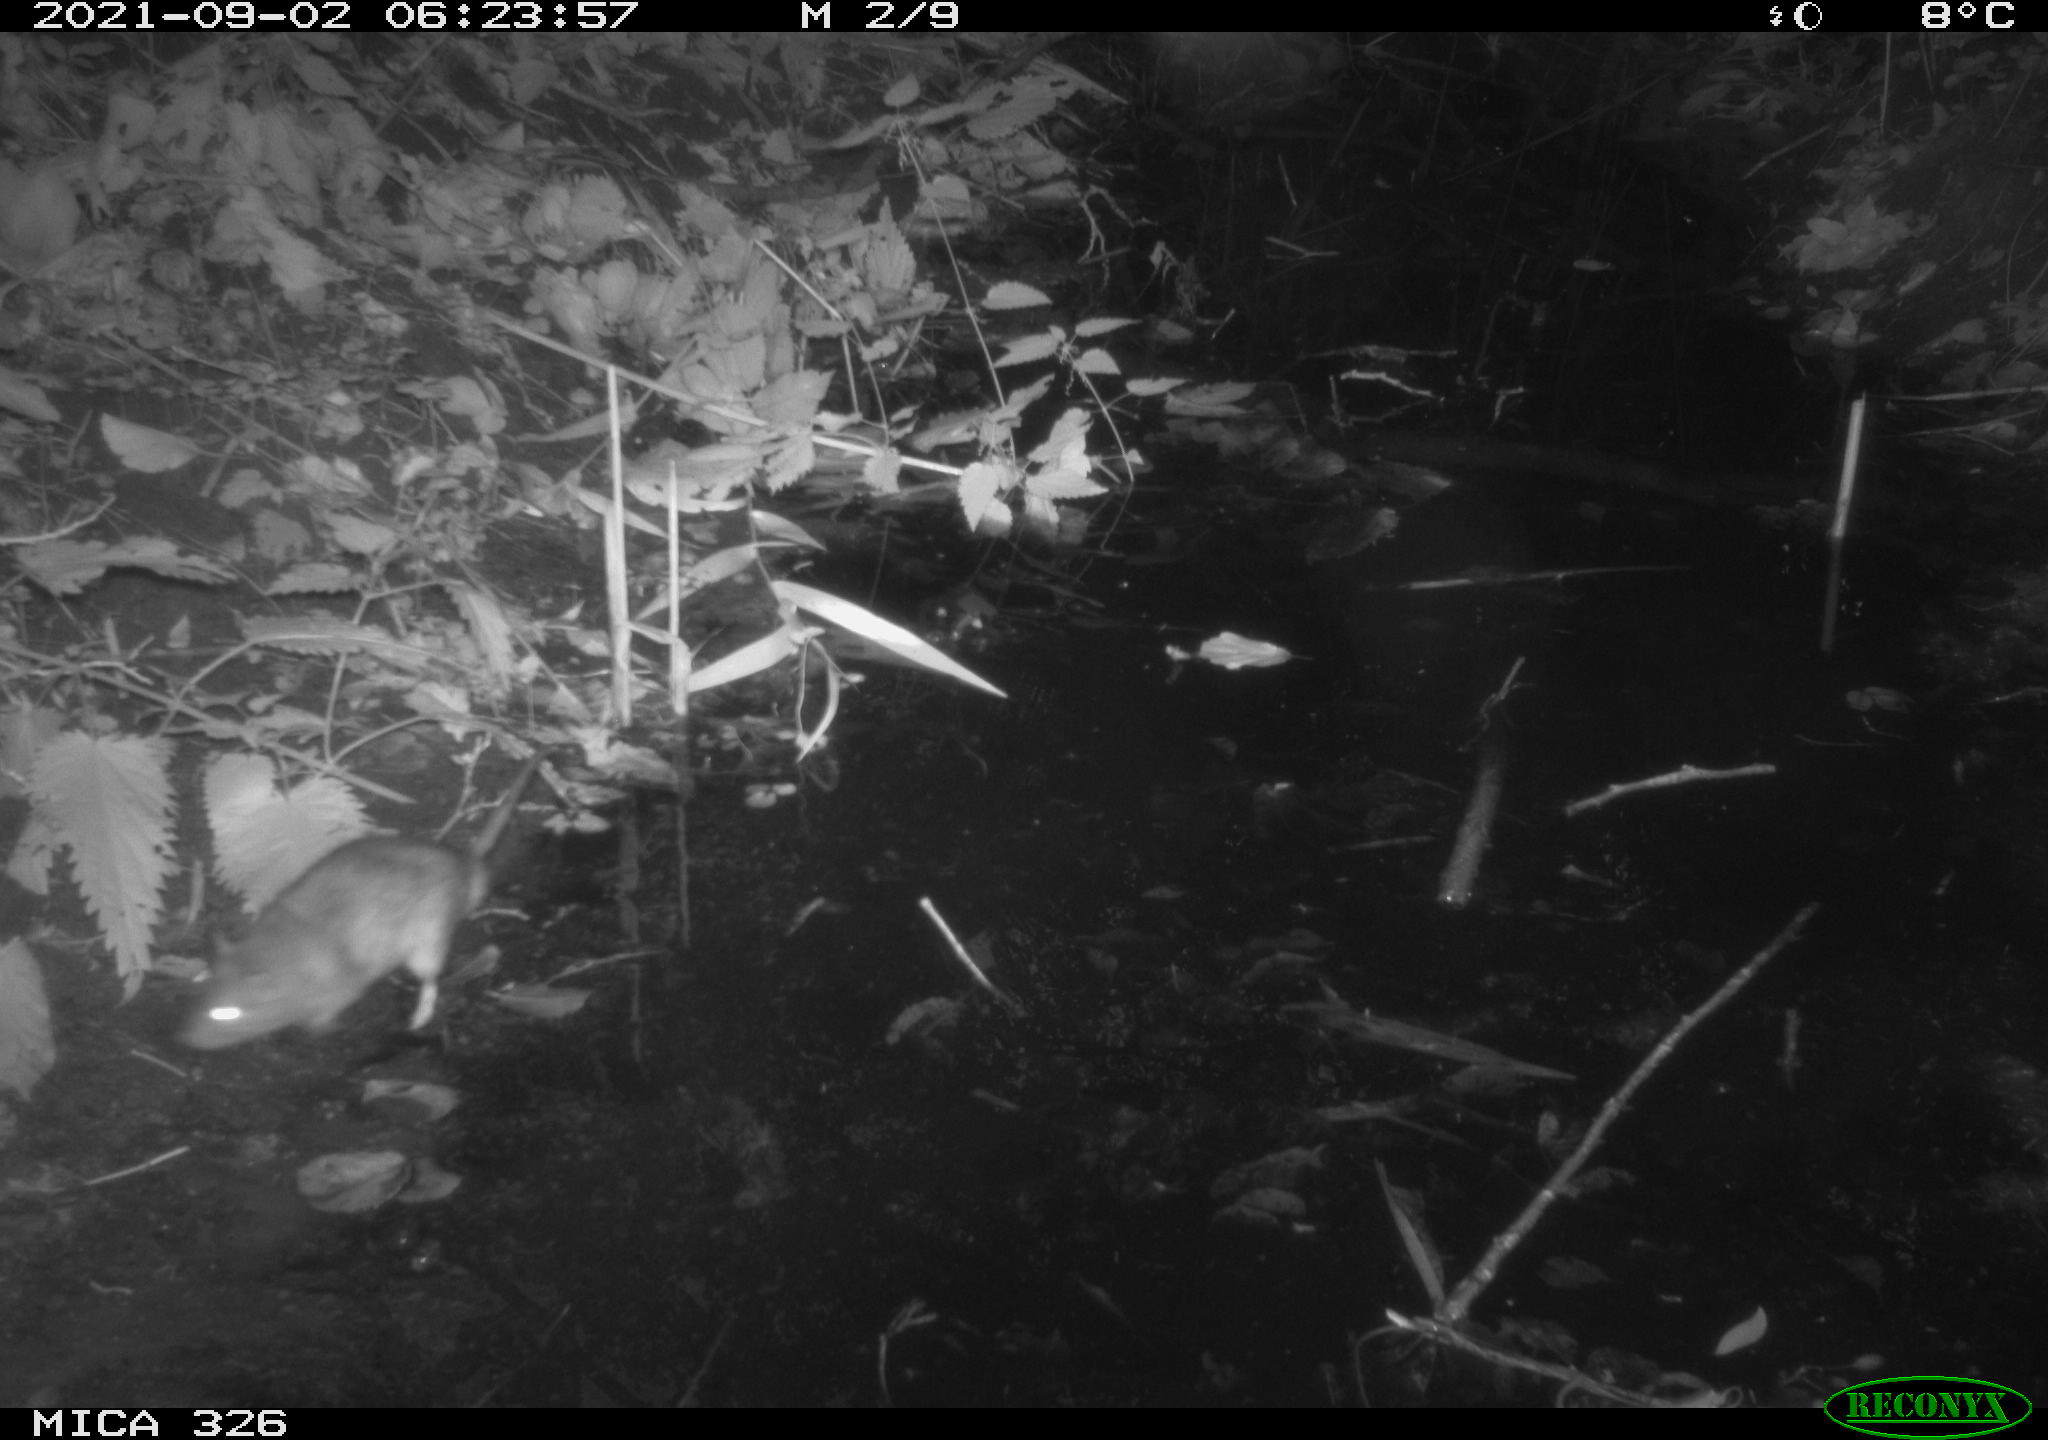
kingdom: Animalia
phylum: Chordata
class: Mammalia
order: Rodentia
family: Muridae
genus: Rattus
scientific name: Rattus norvegicus
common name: Brown rat
